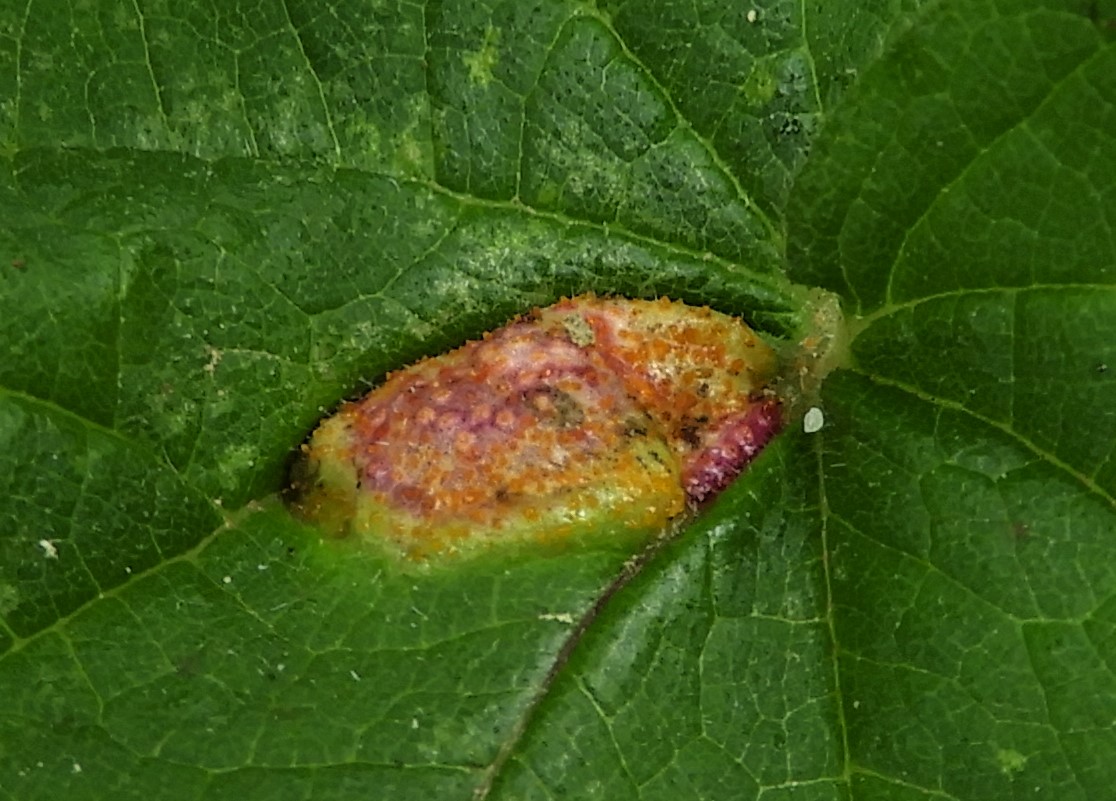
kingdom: Fungi
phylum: Basidiomycota
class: Pucciniomycetes
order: Pucciniales
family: Pucciniaceae
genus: Puccinia
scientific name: Puccinia urticata
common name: nældegalle-tvecellerust
